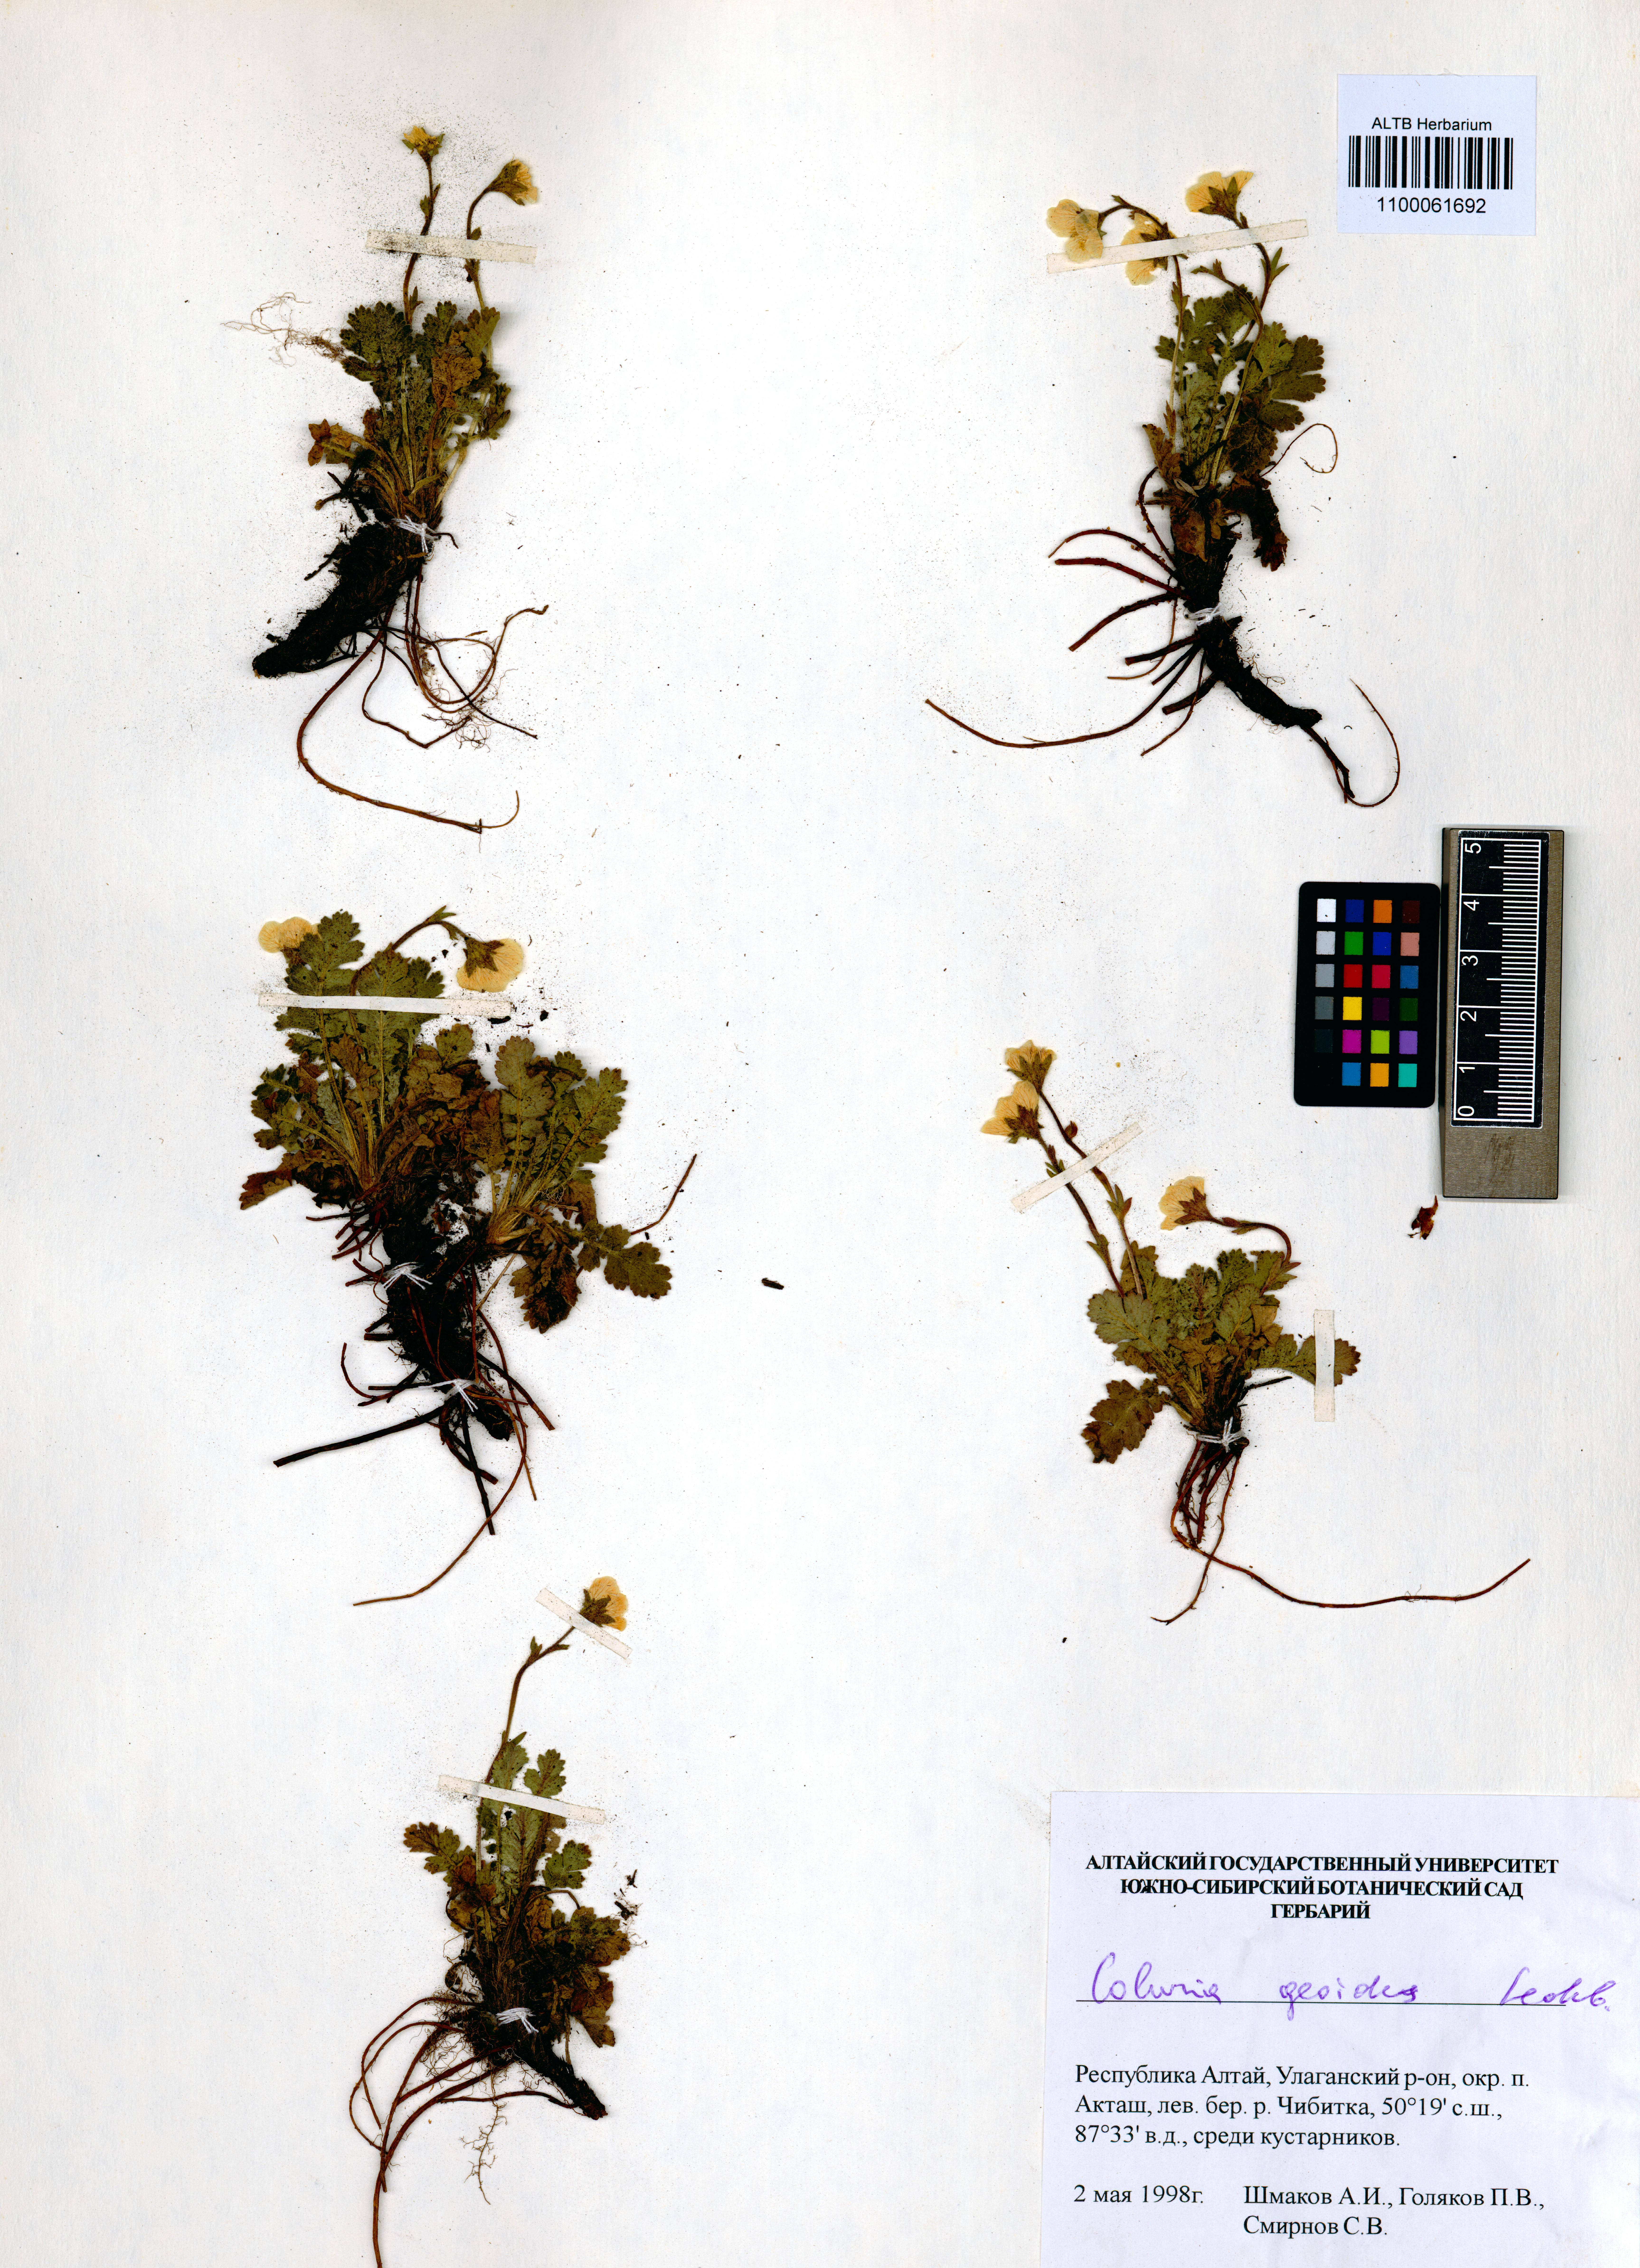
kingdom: Plantae
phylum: Tracheophyta
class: Magnoliopsida
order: Rosales
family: Rosaceae
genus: Geum
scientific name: Geum geoides
